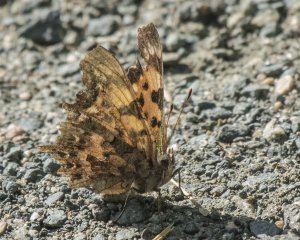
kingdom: Animalia
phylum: Arthropoda
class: Insecta
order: Lepidoptera
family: Nymphalidae
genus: Polygonia
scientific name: Polygonia faunus
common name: Green Comma
